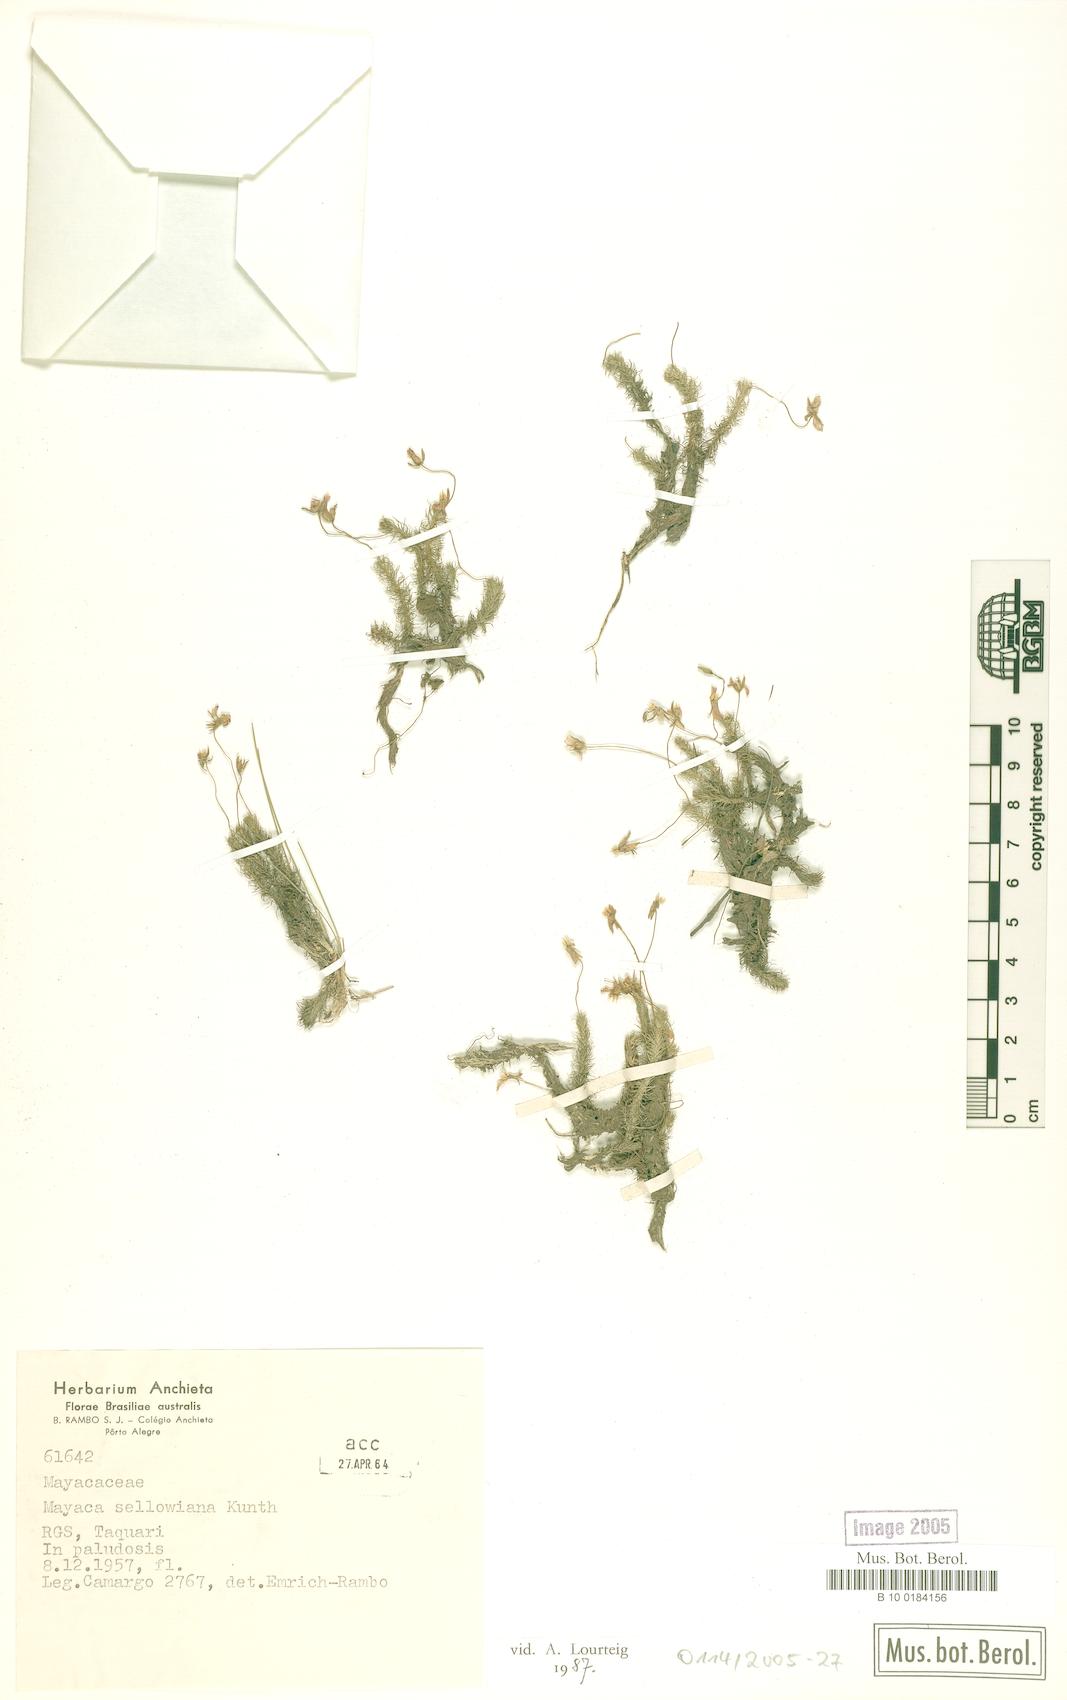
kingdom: Plantae
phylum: Tracheophyta
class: Liliopsida
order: Poales
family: Mayacaceae
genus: Mayaca
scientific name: Mayaca sellowiana
